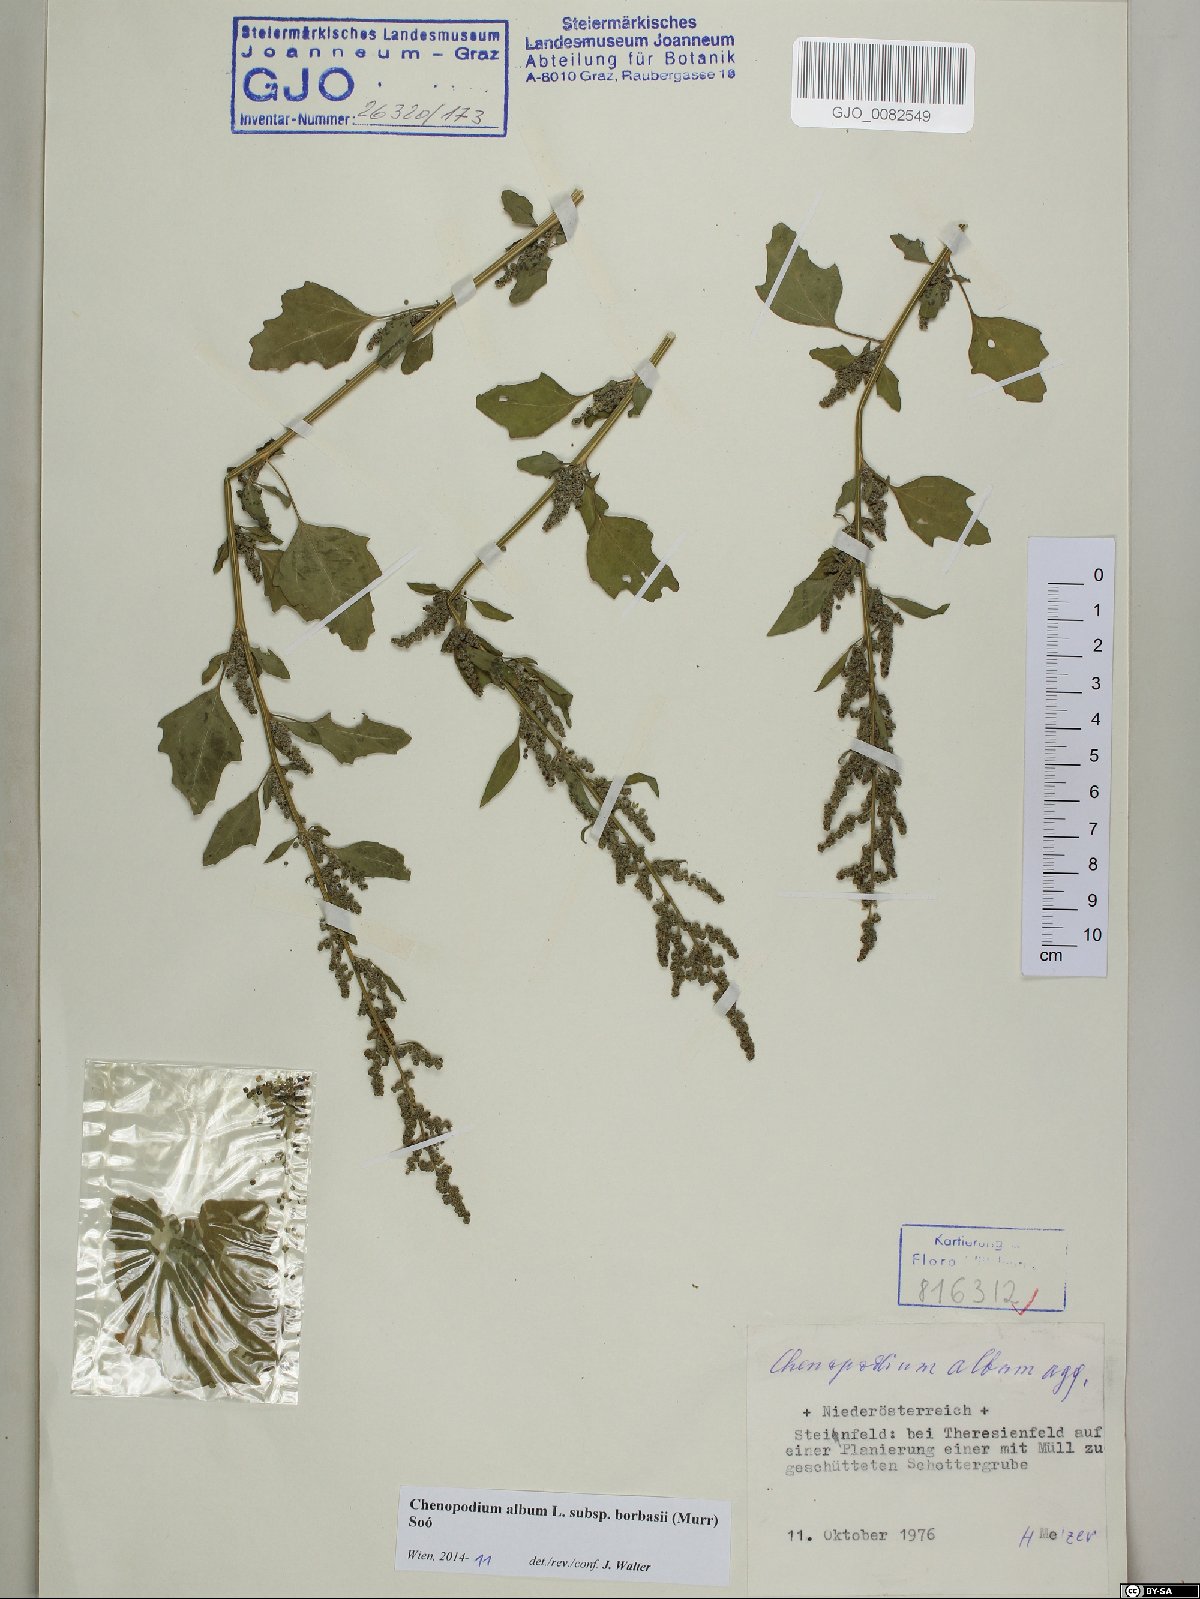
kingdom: Plantae
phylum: Tracheophyta
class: Magnoliopsida
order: Caryophyllales
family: Amaranthaceae
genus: Chenopodium
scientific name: Chenopodium borbasii
